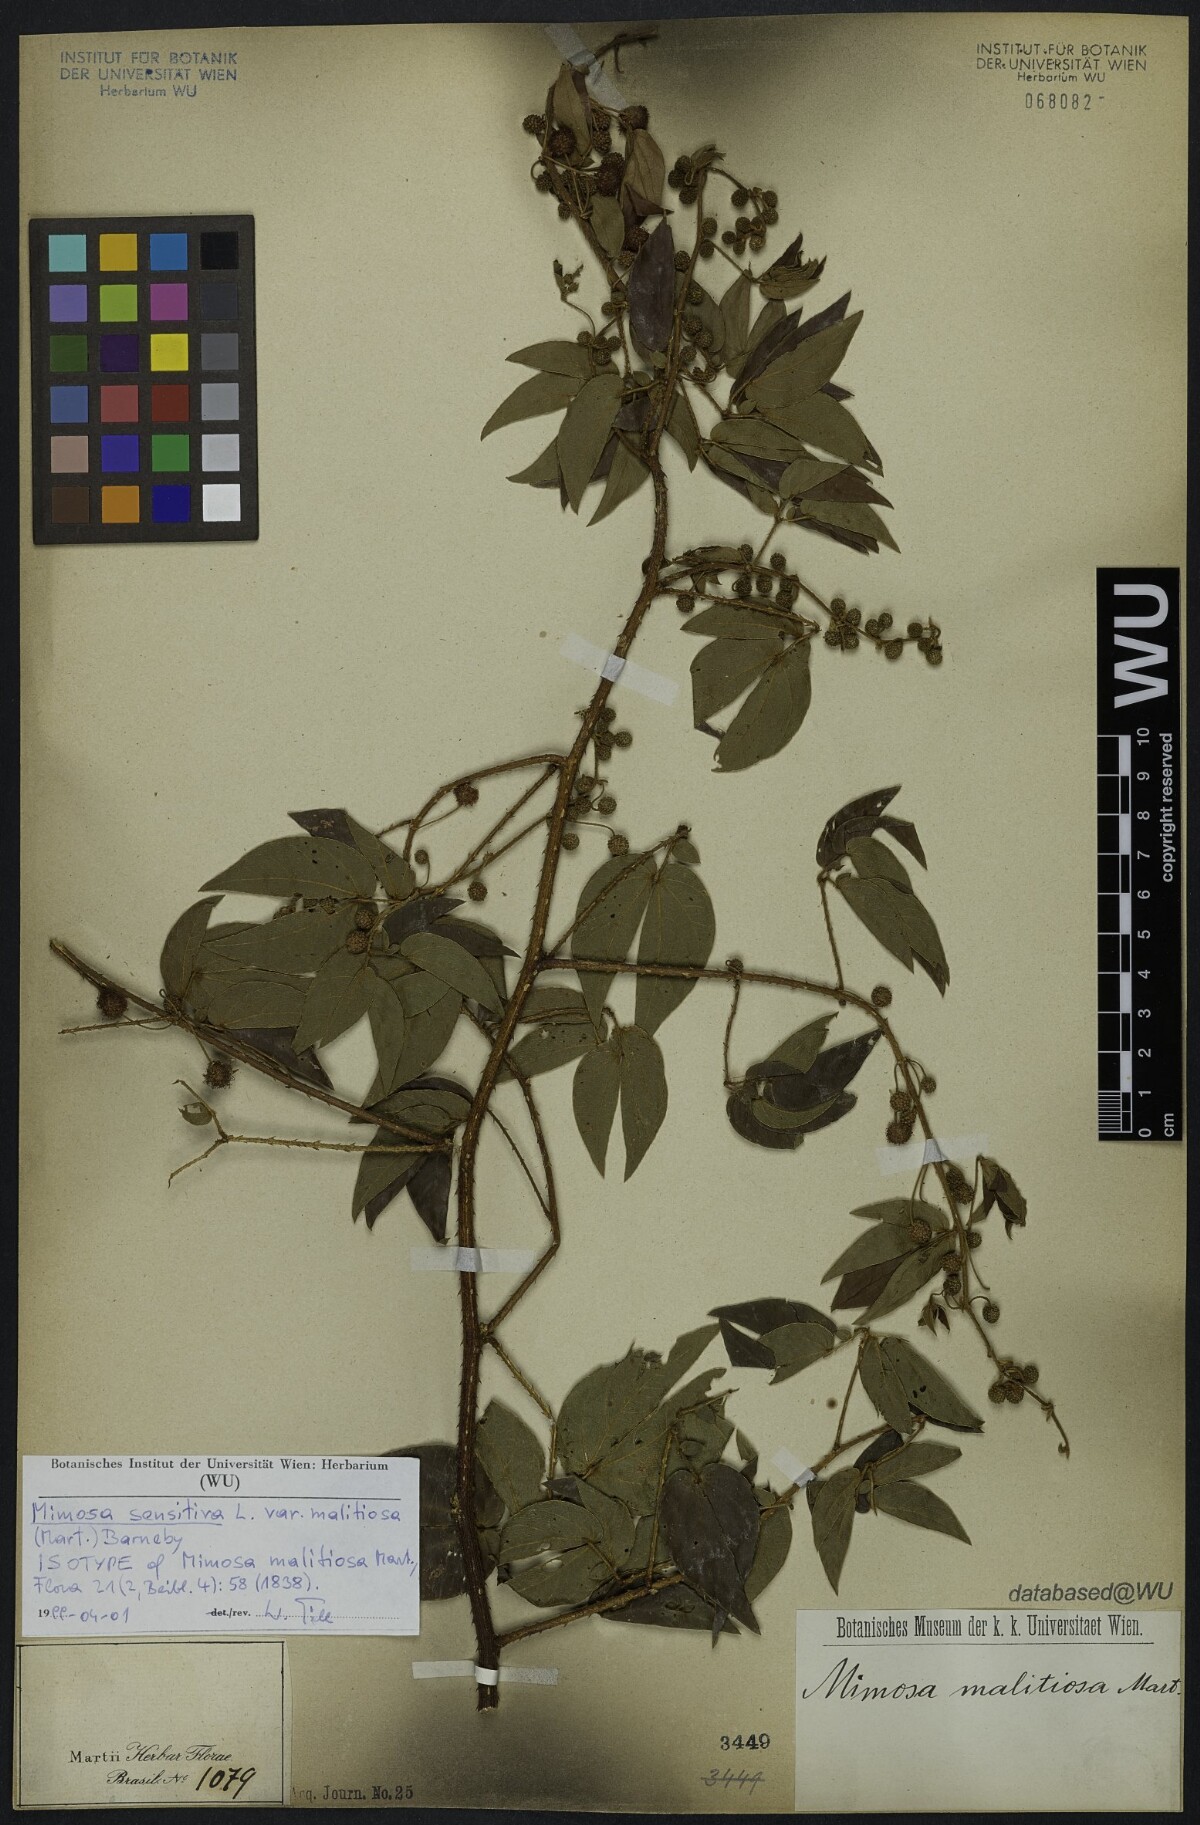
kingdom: Plantae
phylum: Tracheophyta
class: Magnoliopsida
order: Fabales
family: Fabaceae
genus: Mimosa
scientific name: Mimosa sensitiva
